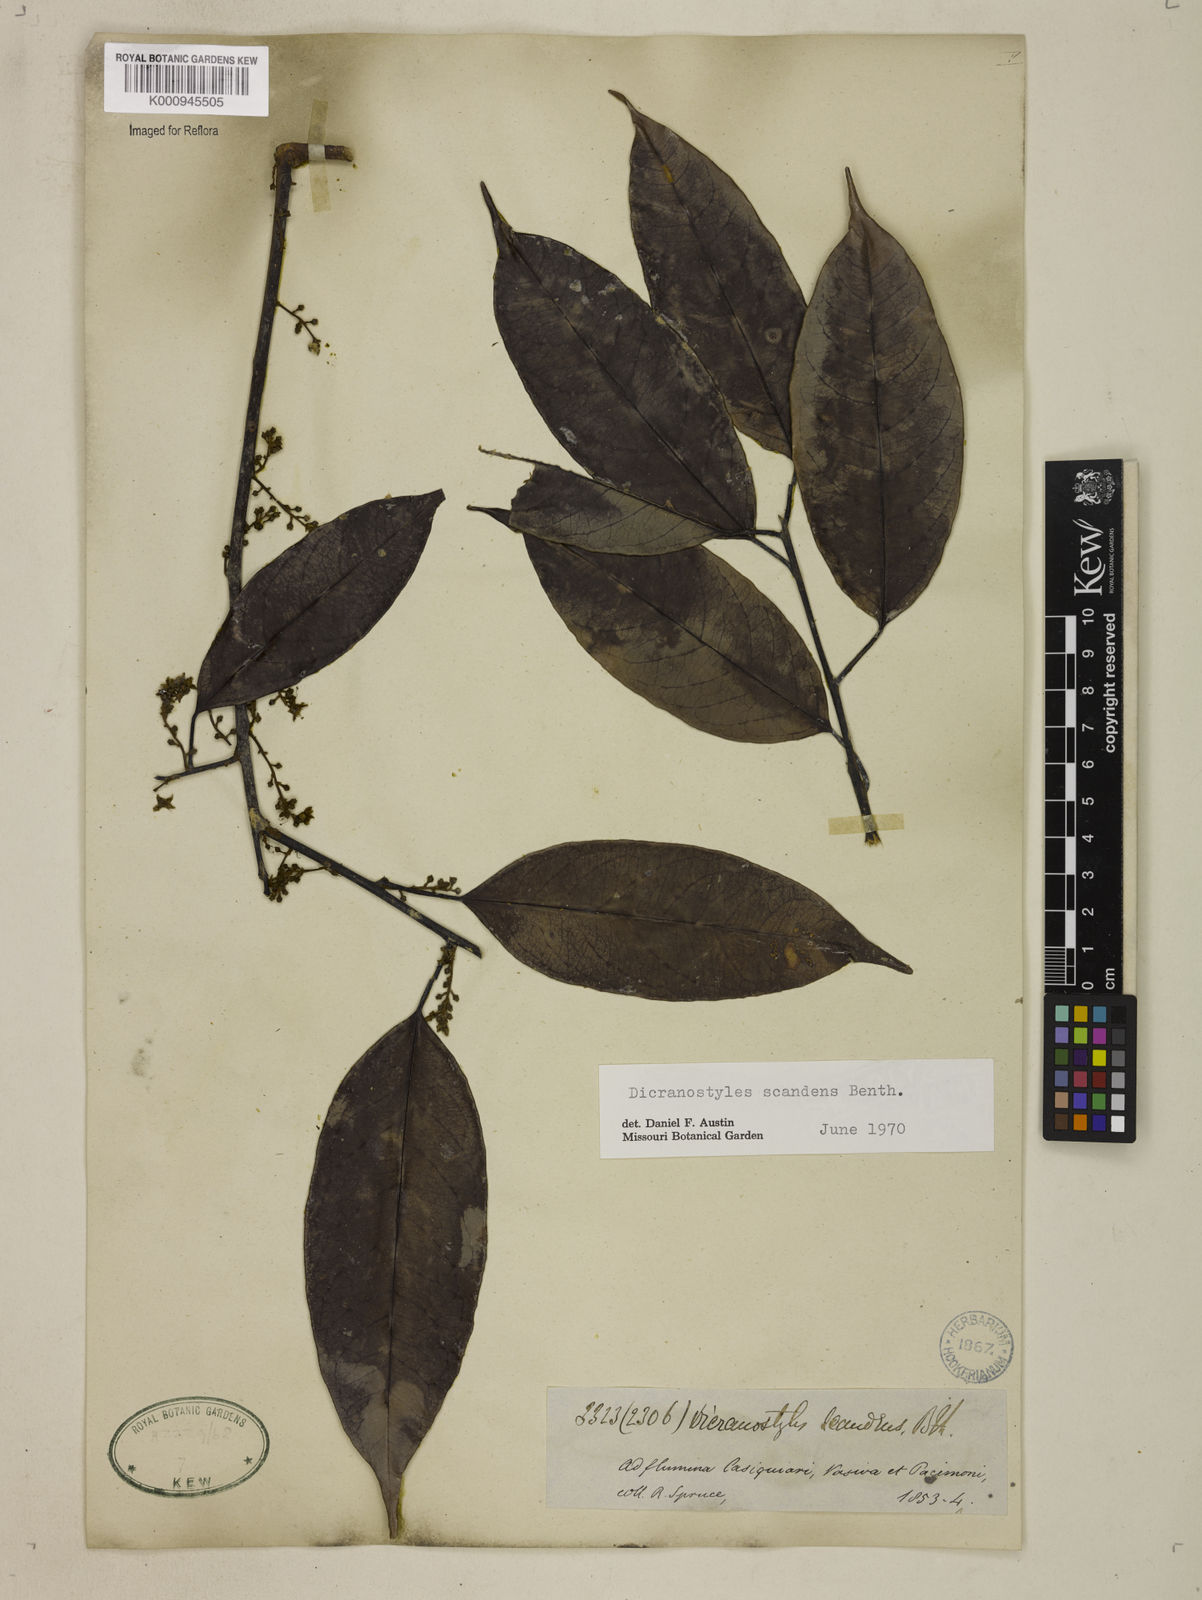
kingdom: Plantae
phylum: Tracheophyta
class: Magnoliopsida
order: Solanales
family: Convolvulaceae
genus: Dicranostyles
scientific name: Dicranostyles scandens
